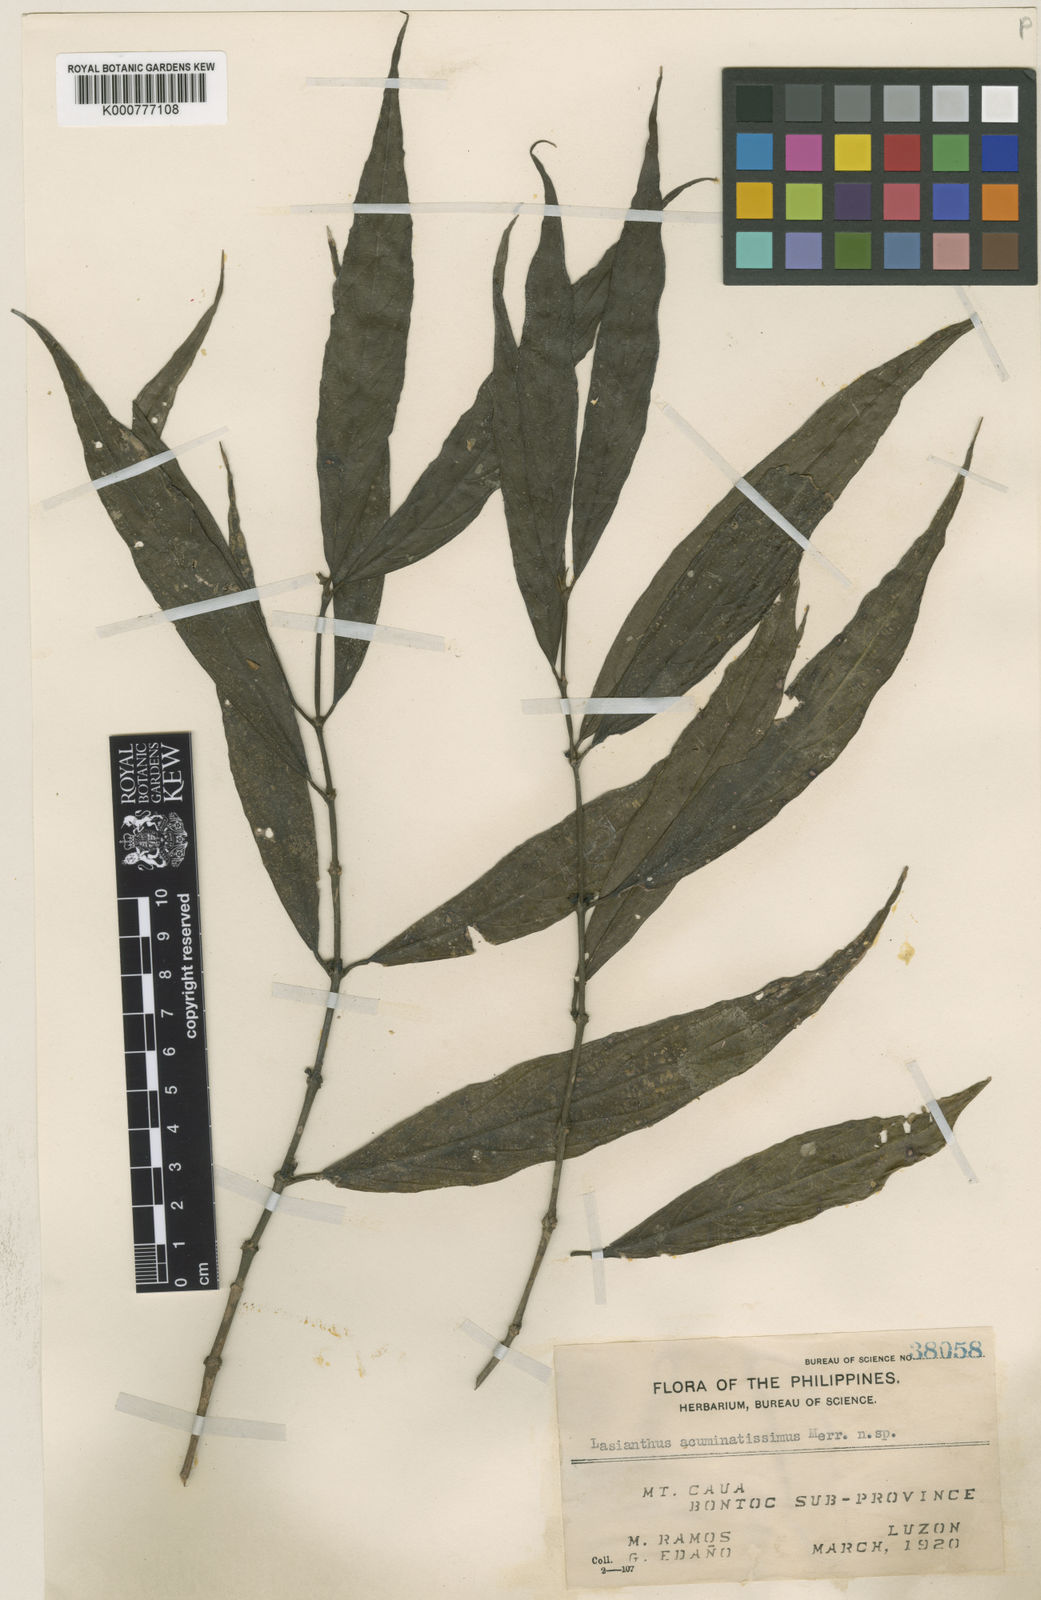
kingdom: Plantae
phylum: Tracheophyta
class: Magnoliopsida
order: Gentianales
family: Rubiaceae
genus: Lasianthus
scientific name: Lasianthus acuminatissimus
